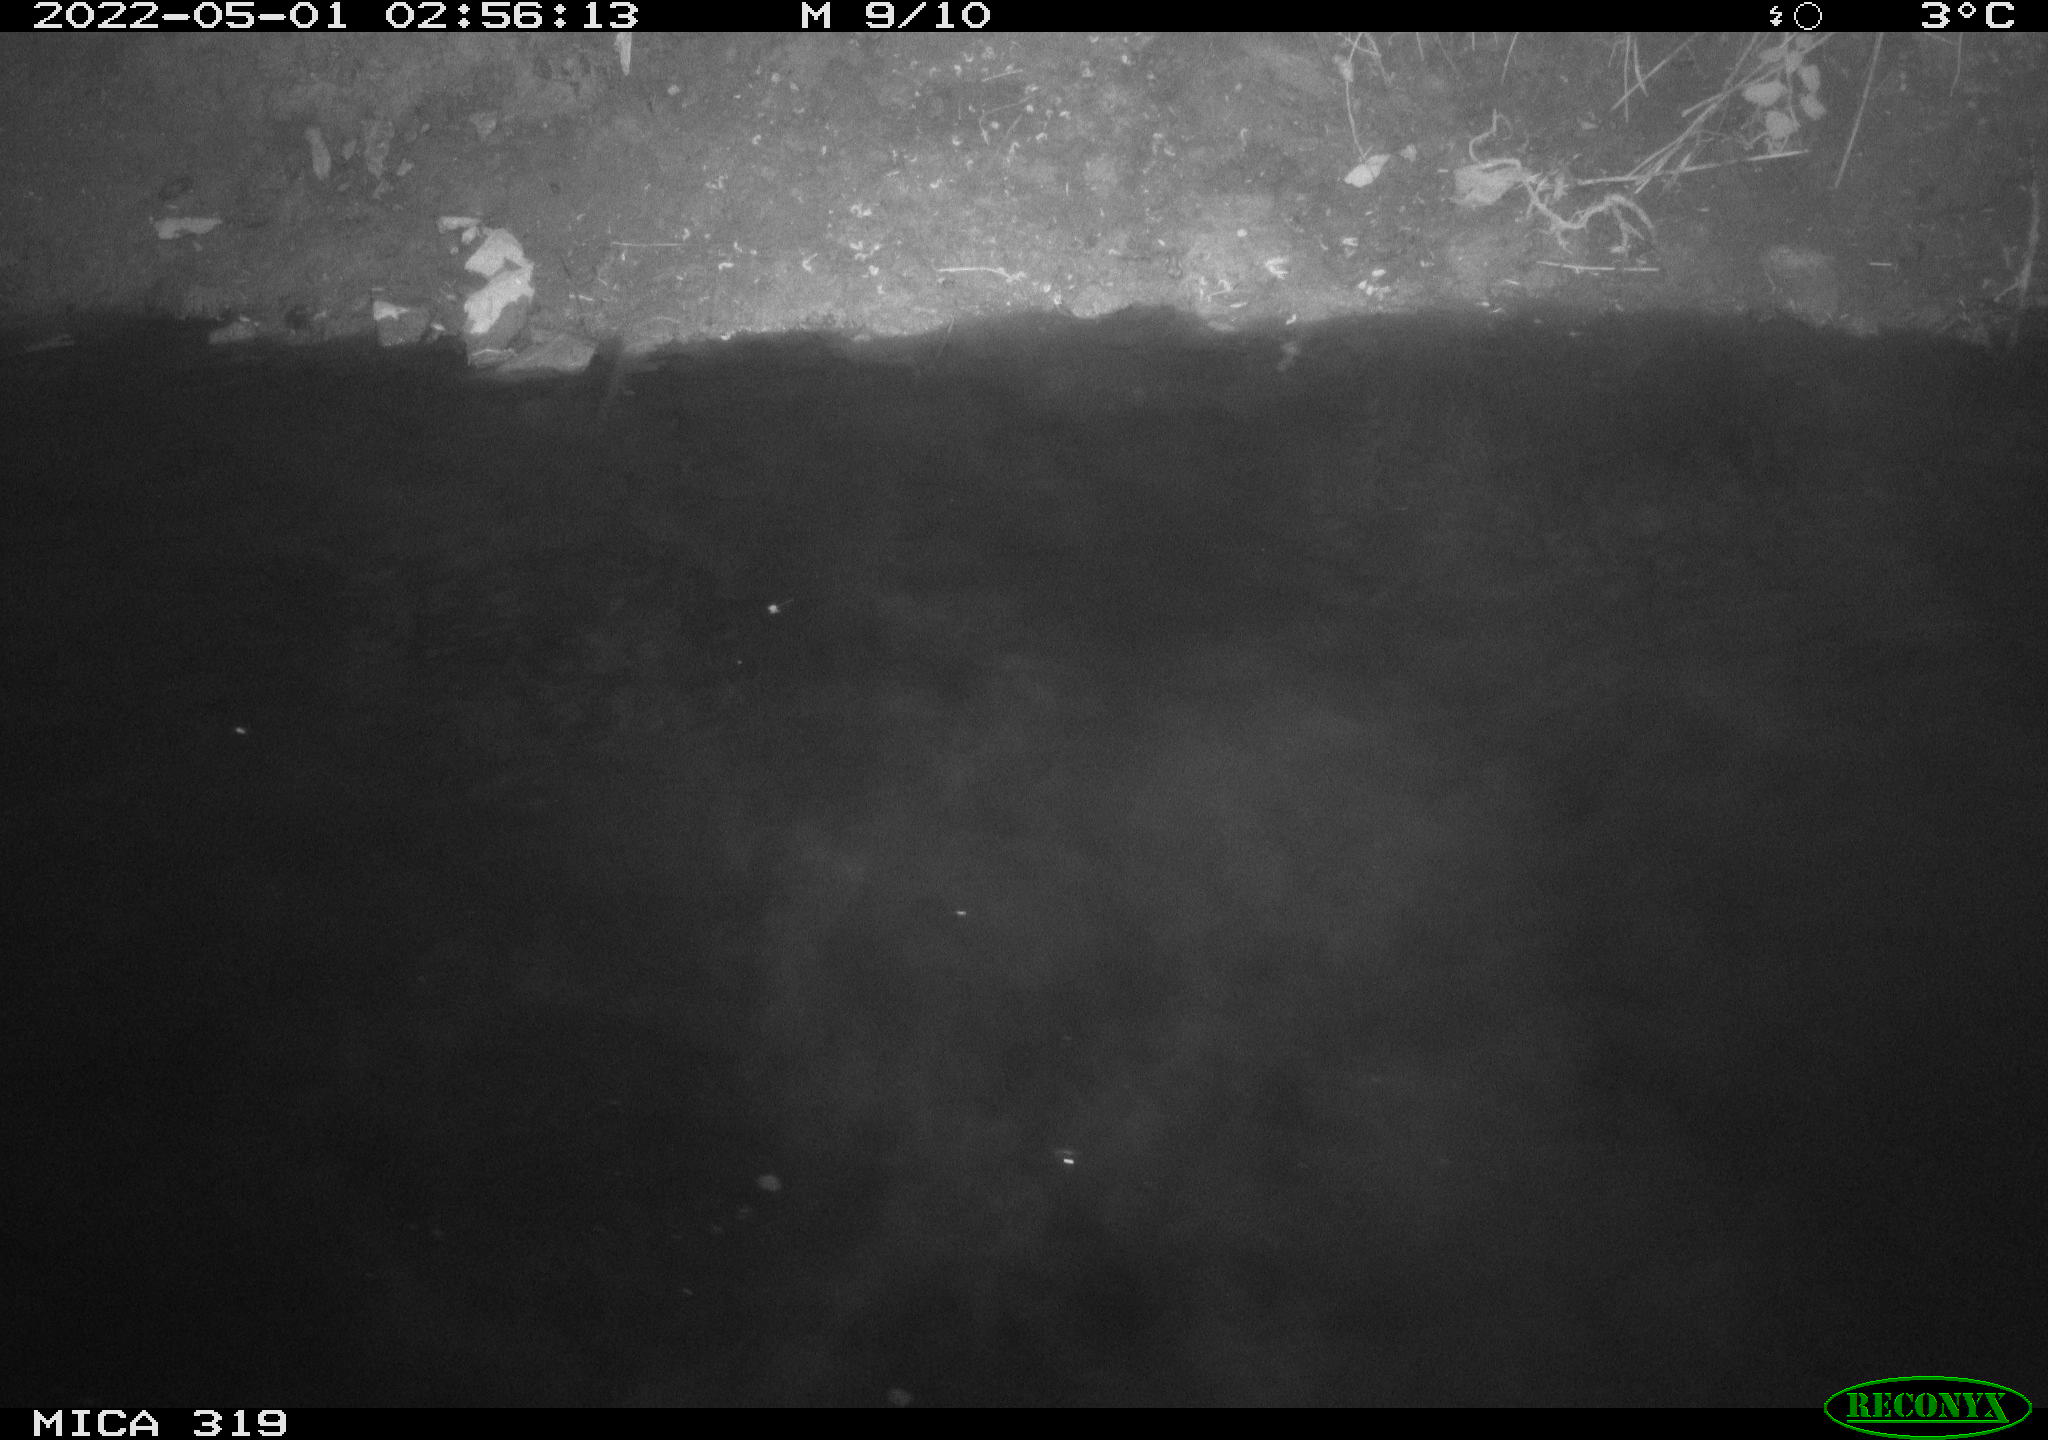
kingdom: Animalia
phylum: Chordata
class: Aves
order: Anseriformes
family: Anatidae
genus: Anas
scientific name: Anas platyrhynchos
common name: Mallard
